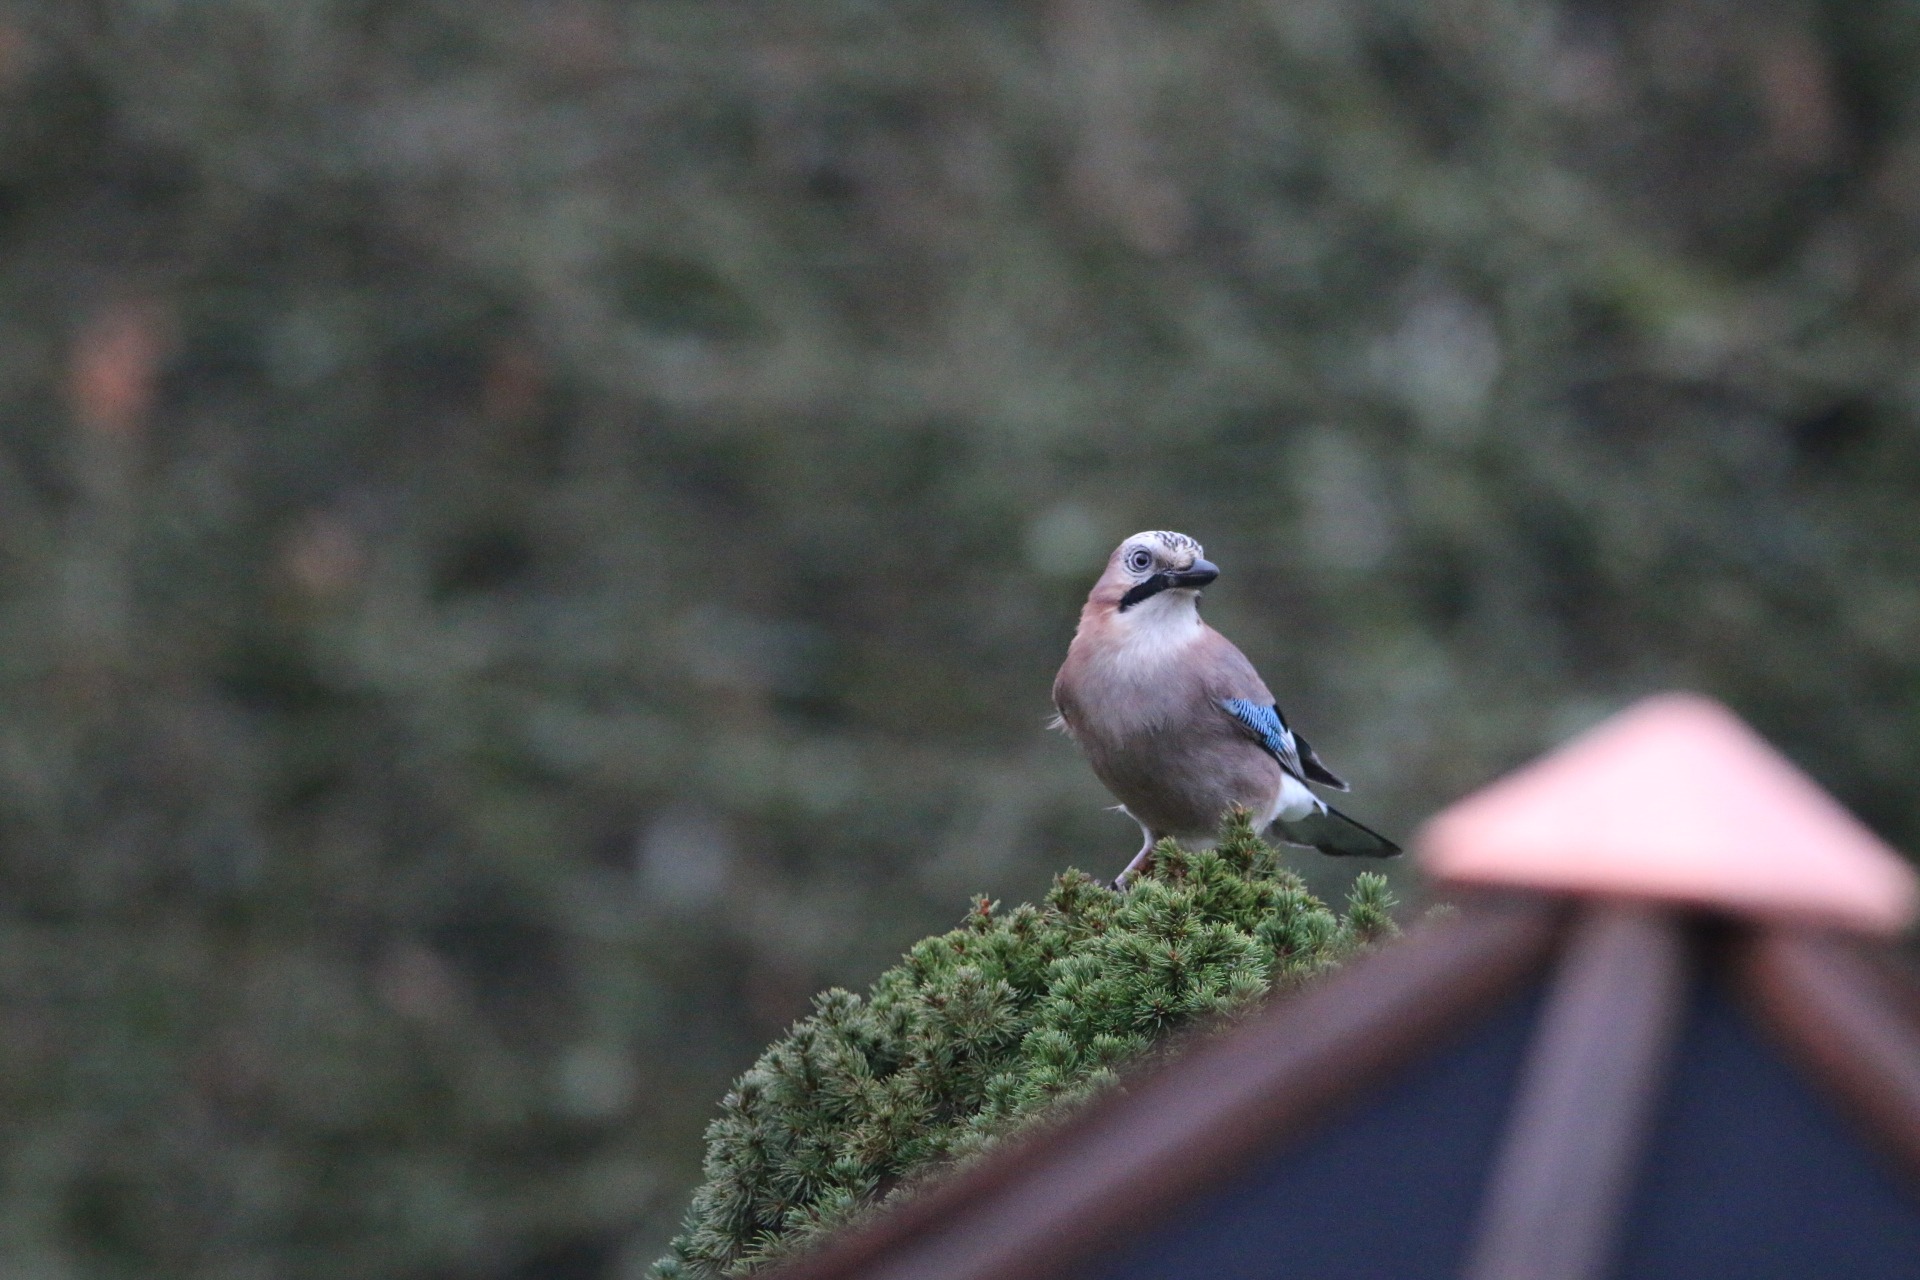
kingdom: Animalia
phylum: Chordata
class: Aves
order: Passeriformes
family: Corvidae
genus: Garrulus
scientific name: Garrulus glandarius
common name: Skovskade
